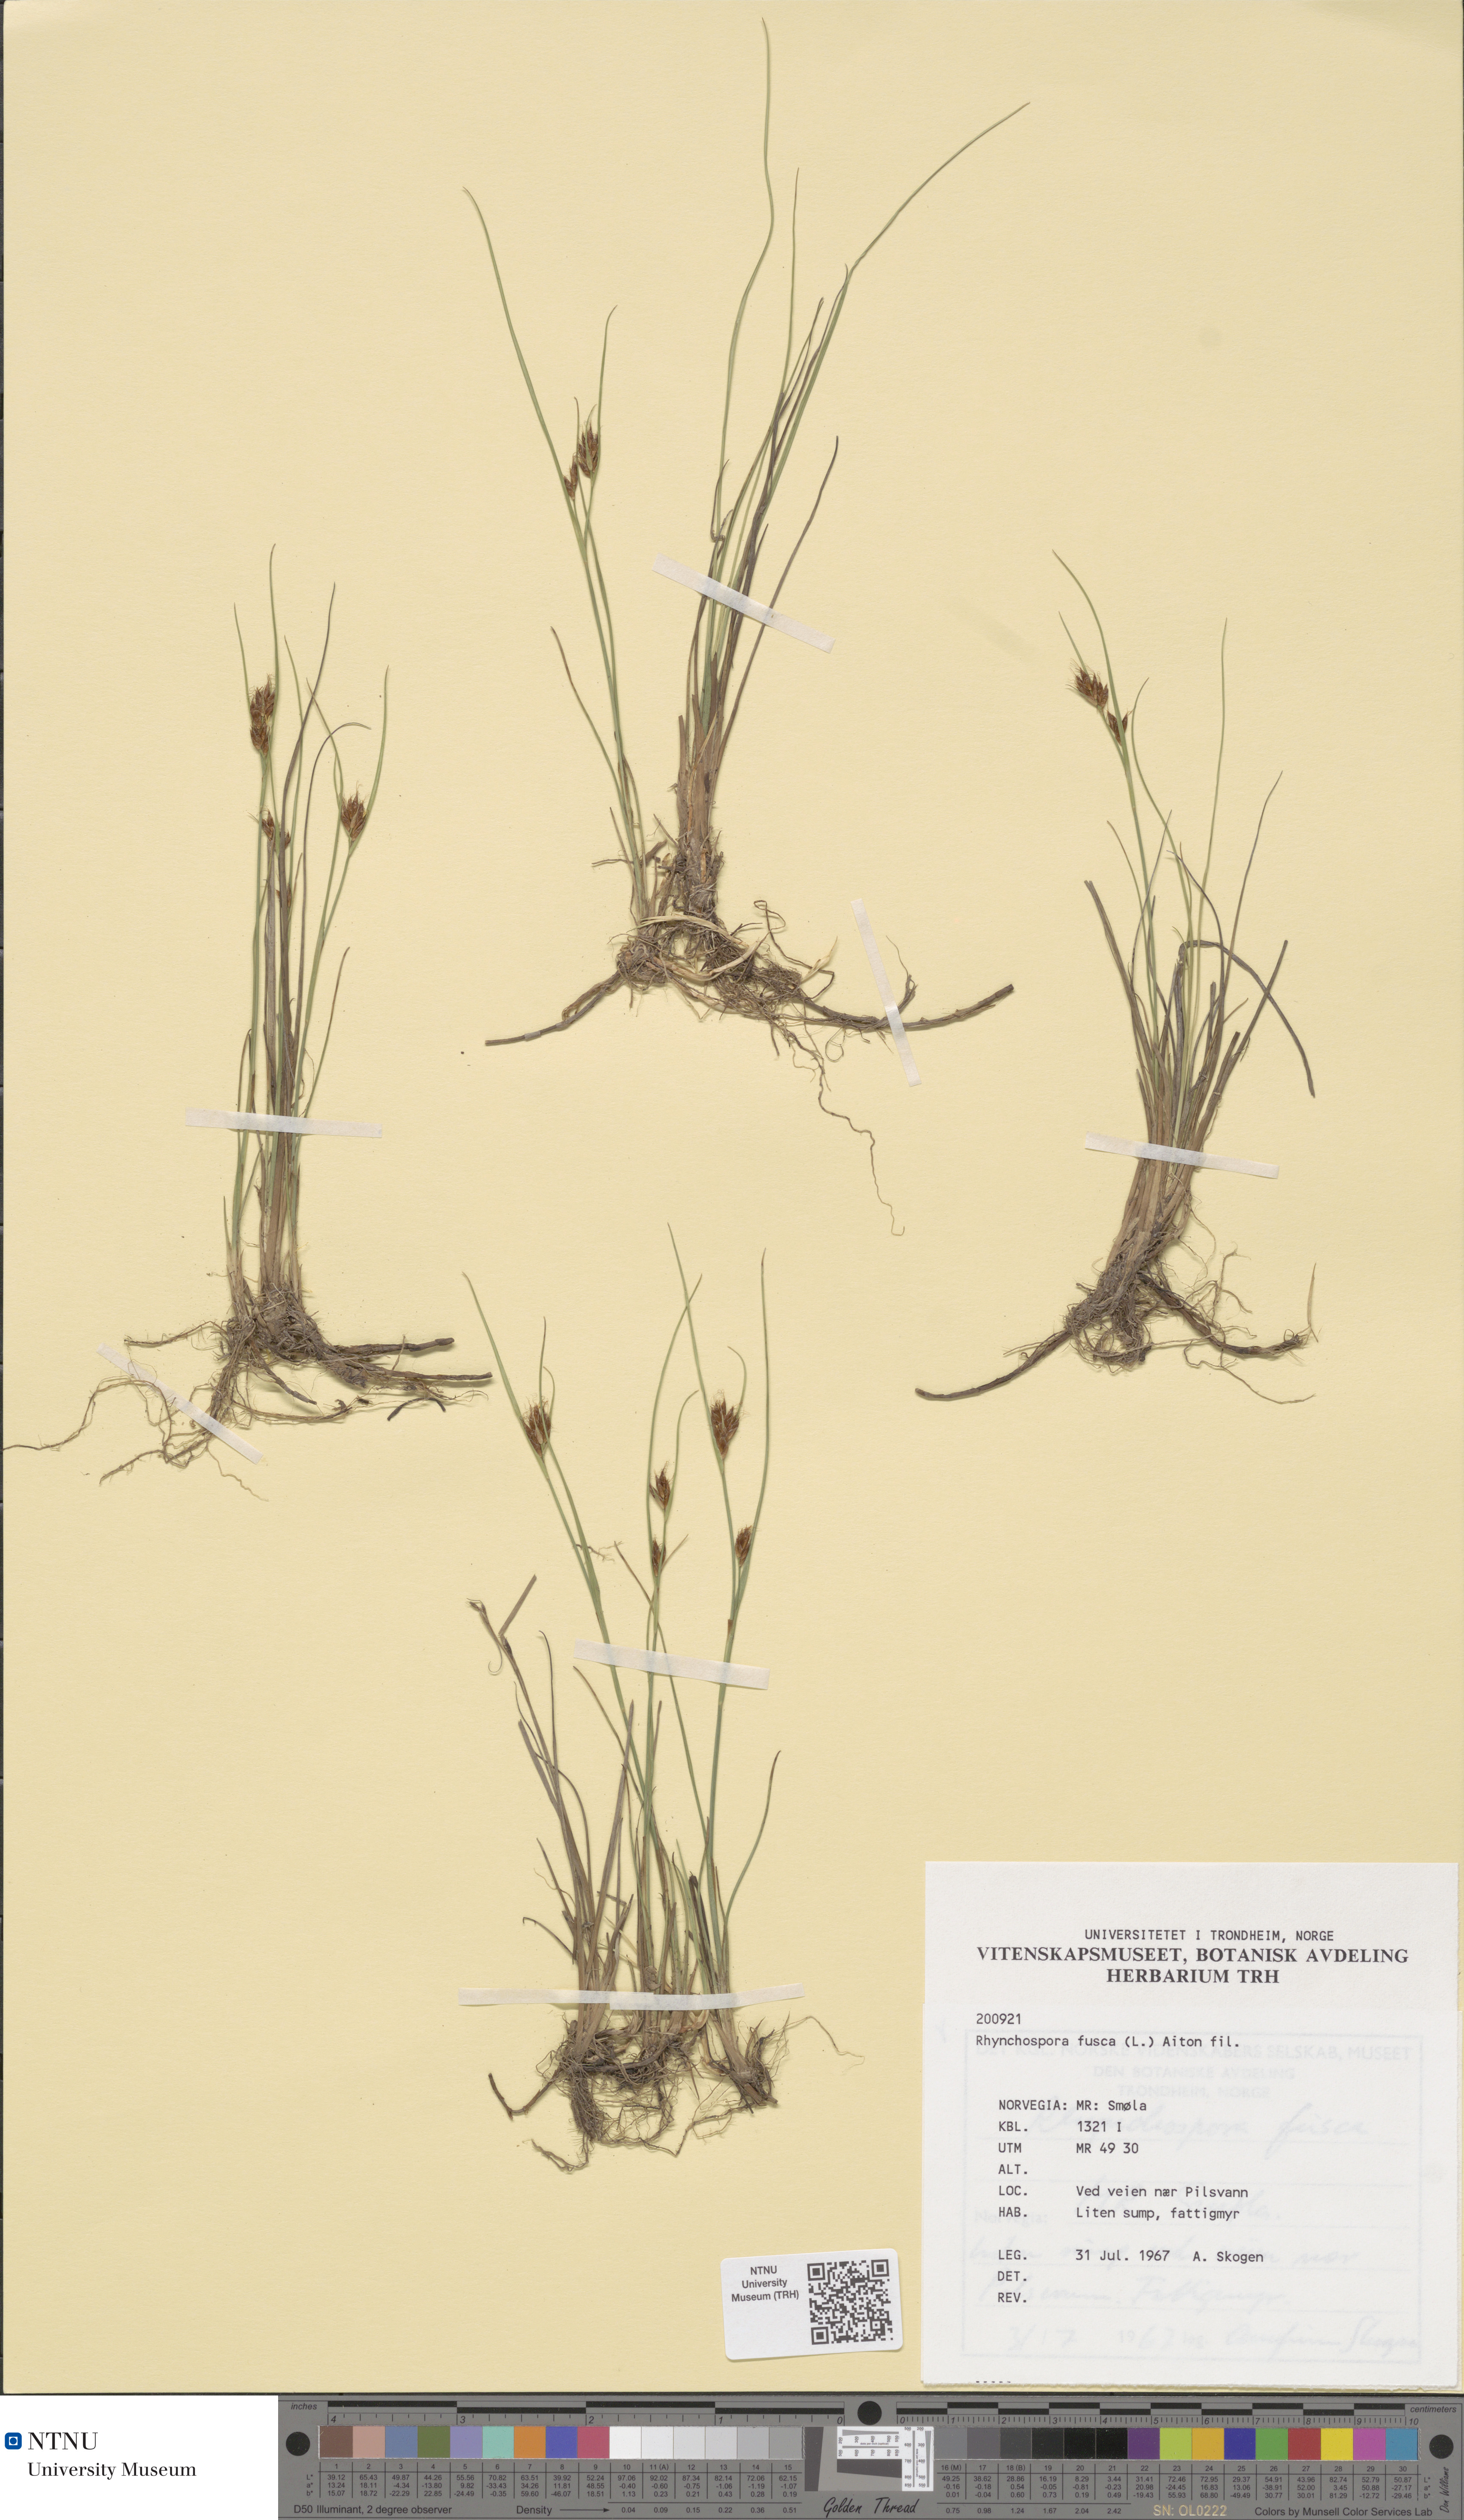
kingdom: Plantae
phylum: Tracheophyta
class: Liliopsida
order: Poales
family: Cyperaceae
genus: Rhynchospora
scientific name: Rhynchospora fusca
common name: Brown beak-sedge
